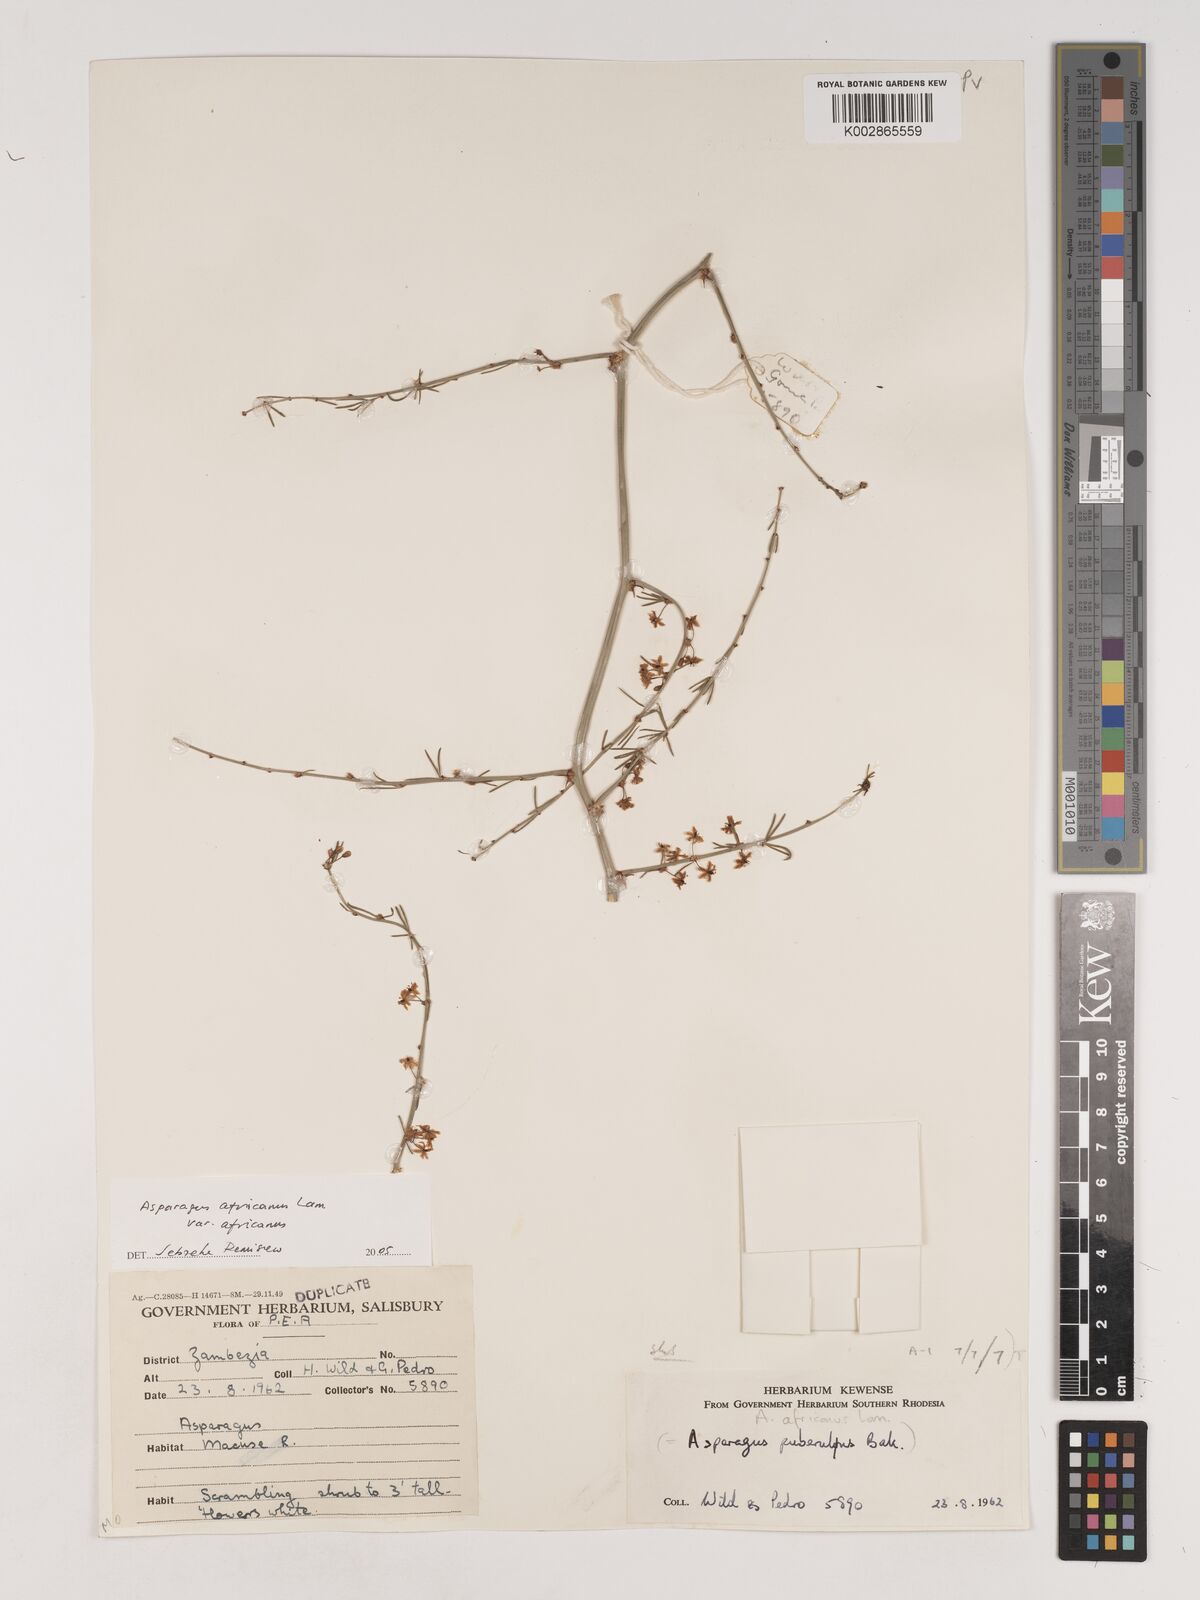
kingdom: Plantae
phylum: Tracheophyta
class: Liliopsida
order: Asparagales
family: Asparagaceae
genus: Asparagus
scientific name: Asparagus africanus
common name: Asparagus-fern
